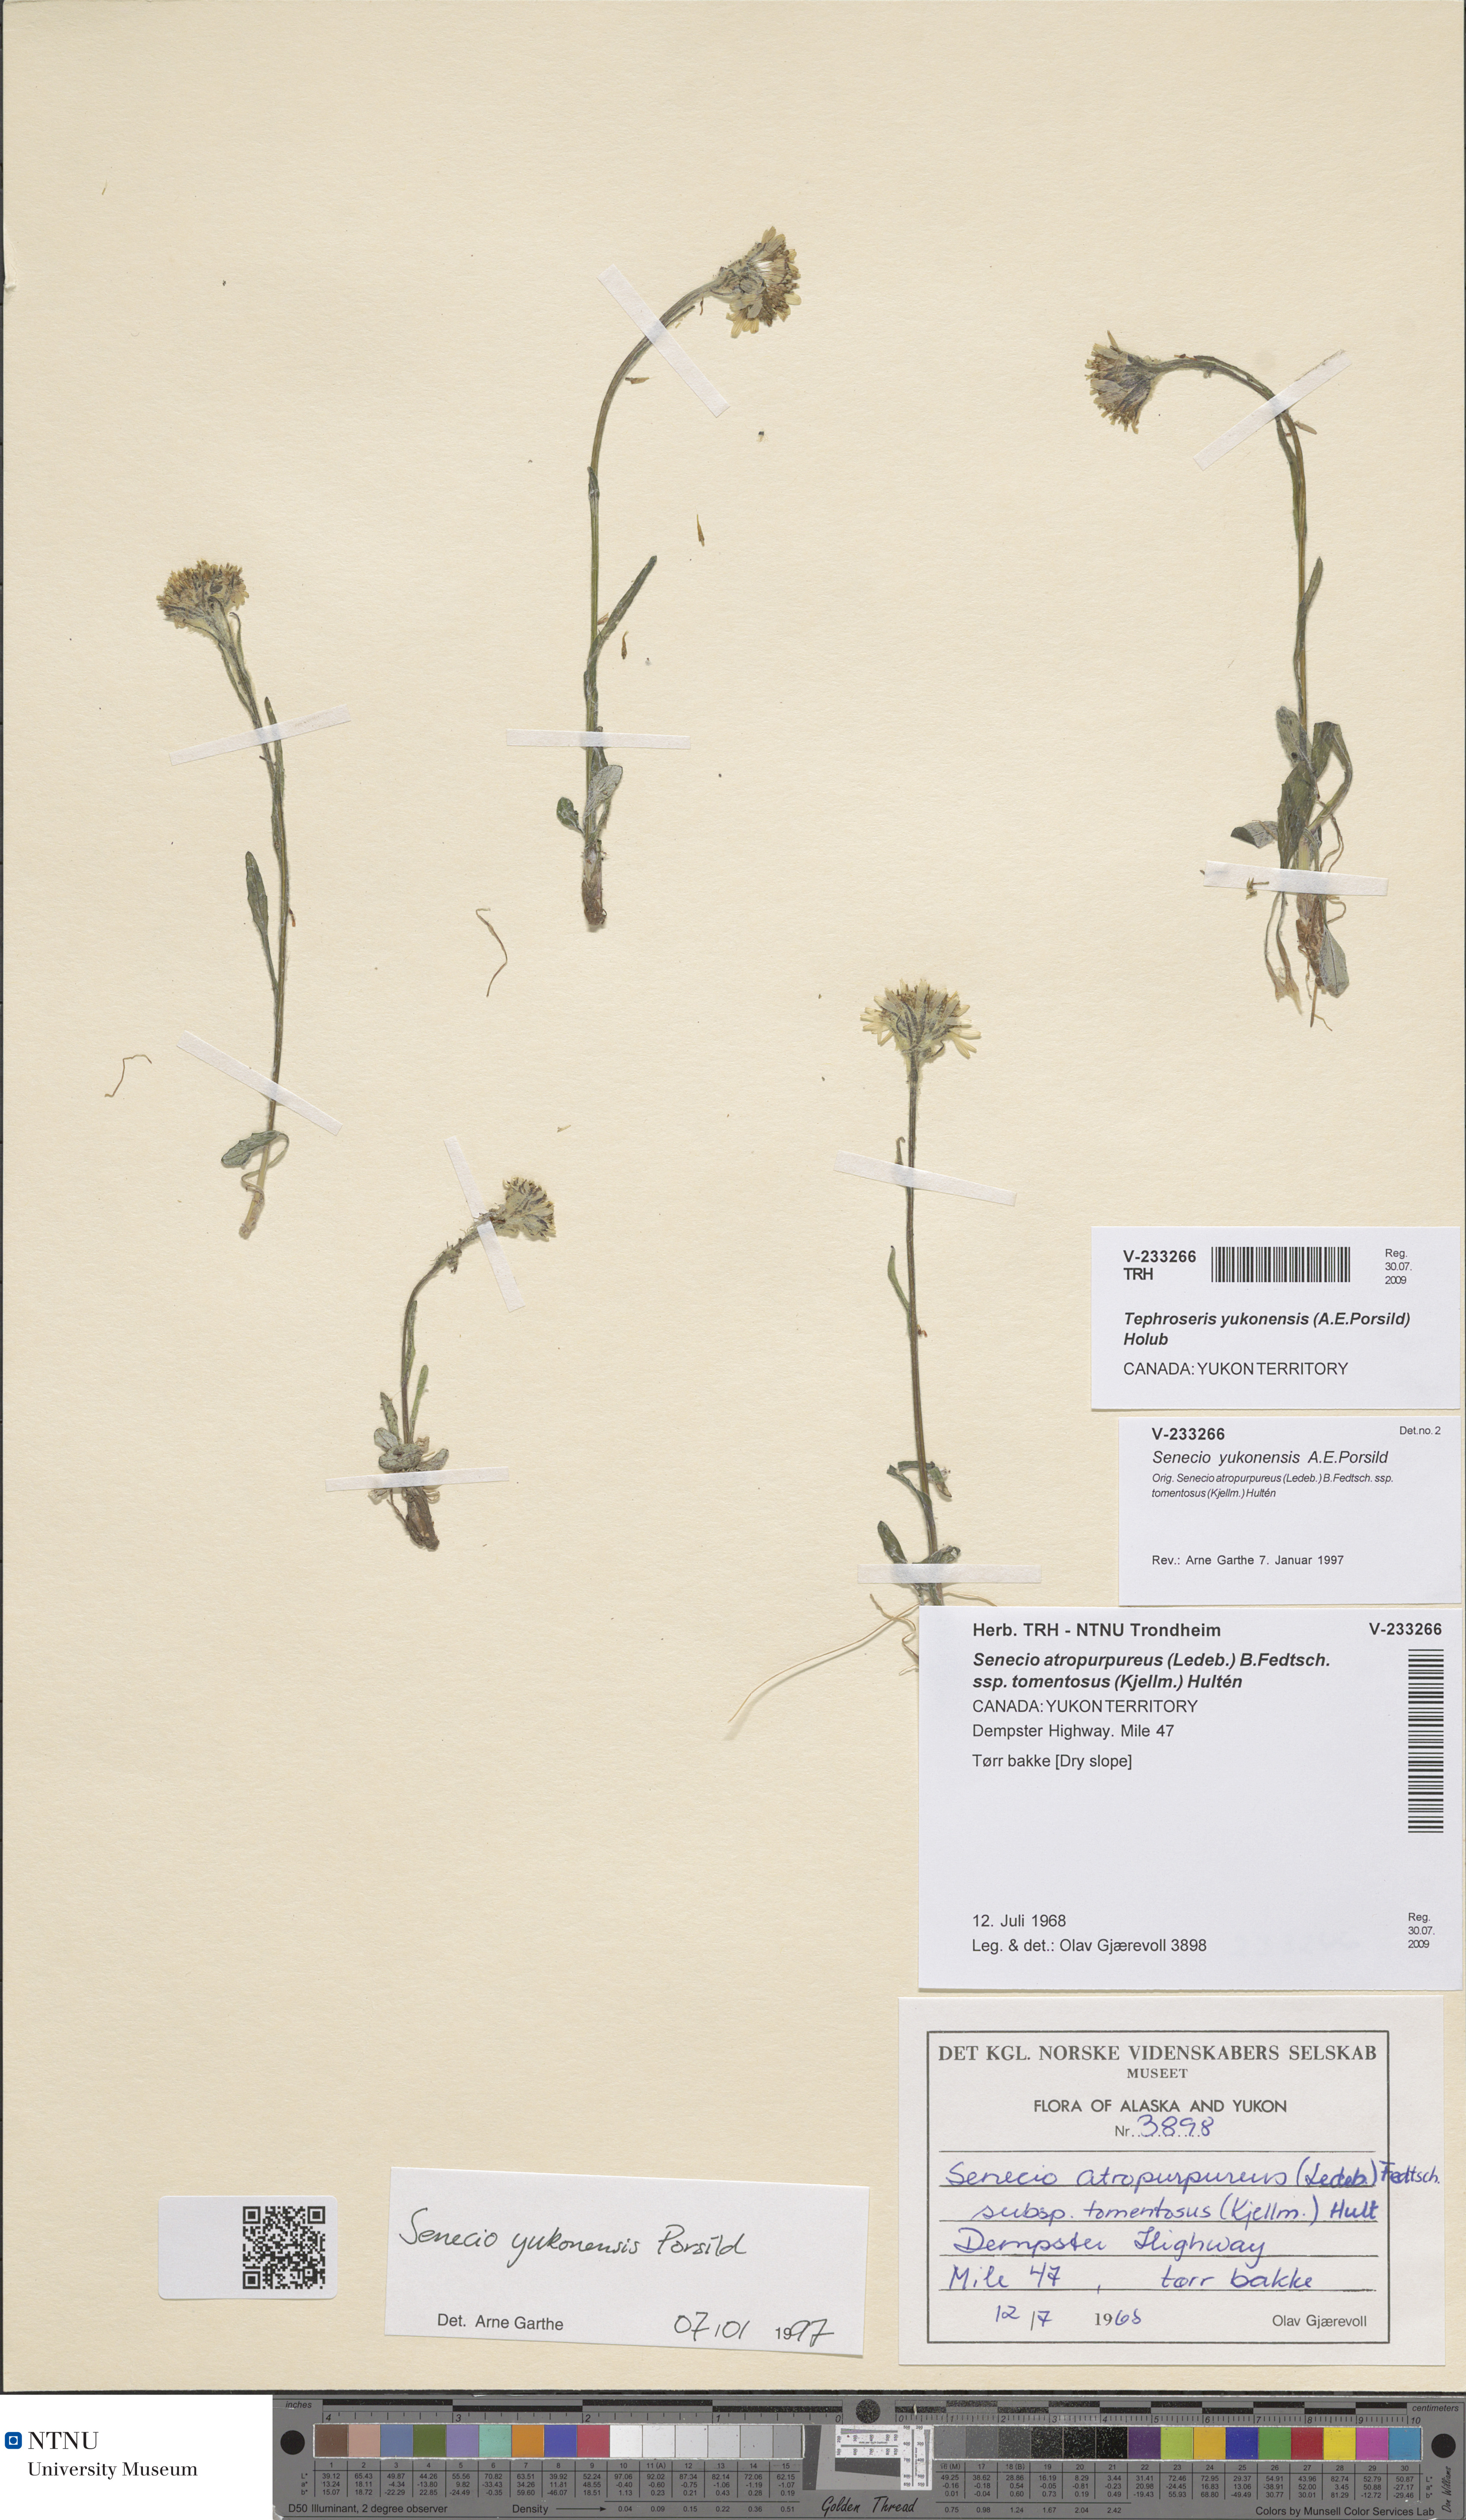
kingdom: Plantae
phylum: Tracheophyta
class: Magnoliopsida
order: Asterales
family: Asteraceae
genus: Tephroseris
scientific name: Tephroseris yukonensis
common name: Yukon groundsel
